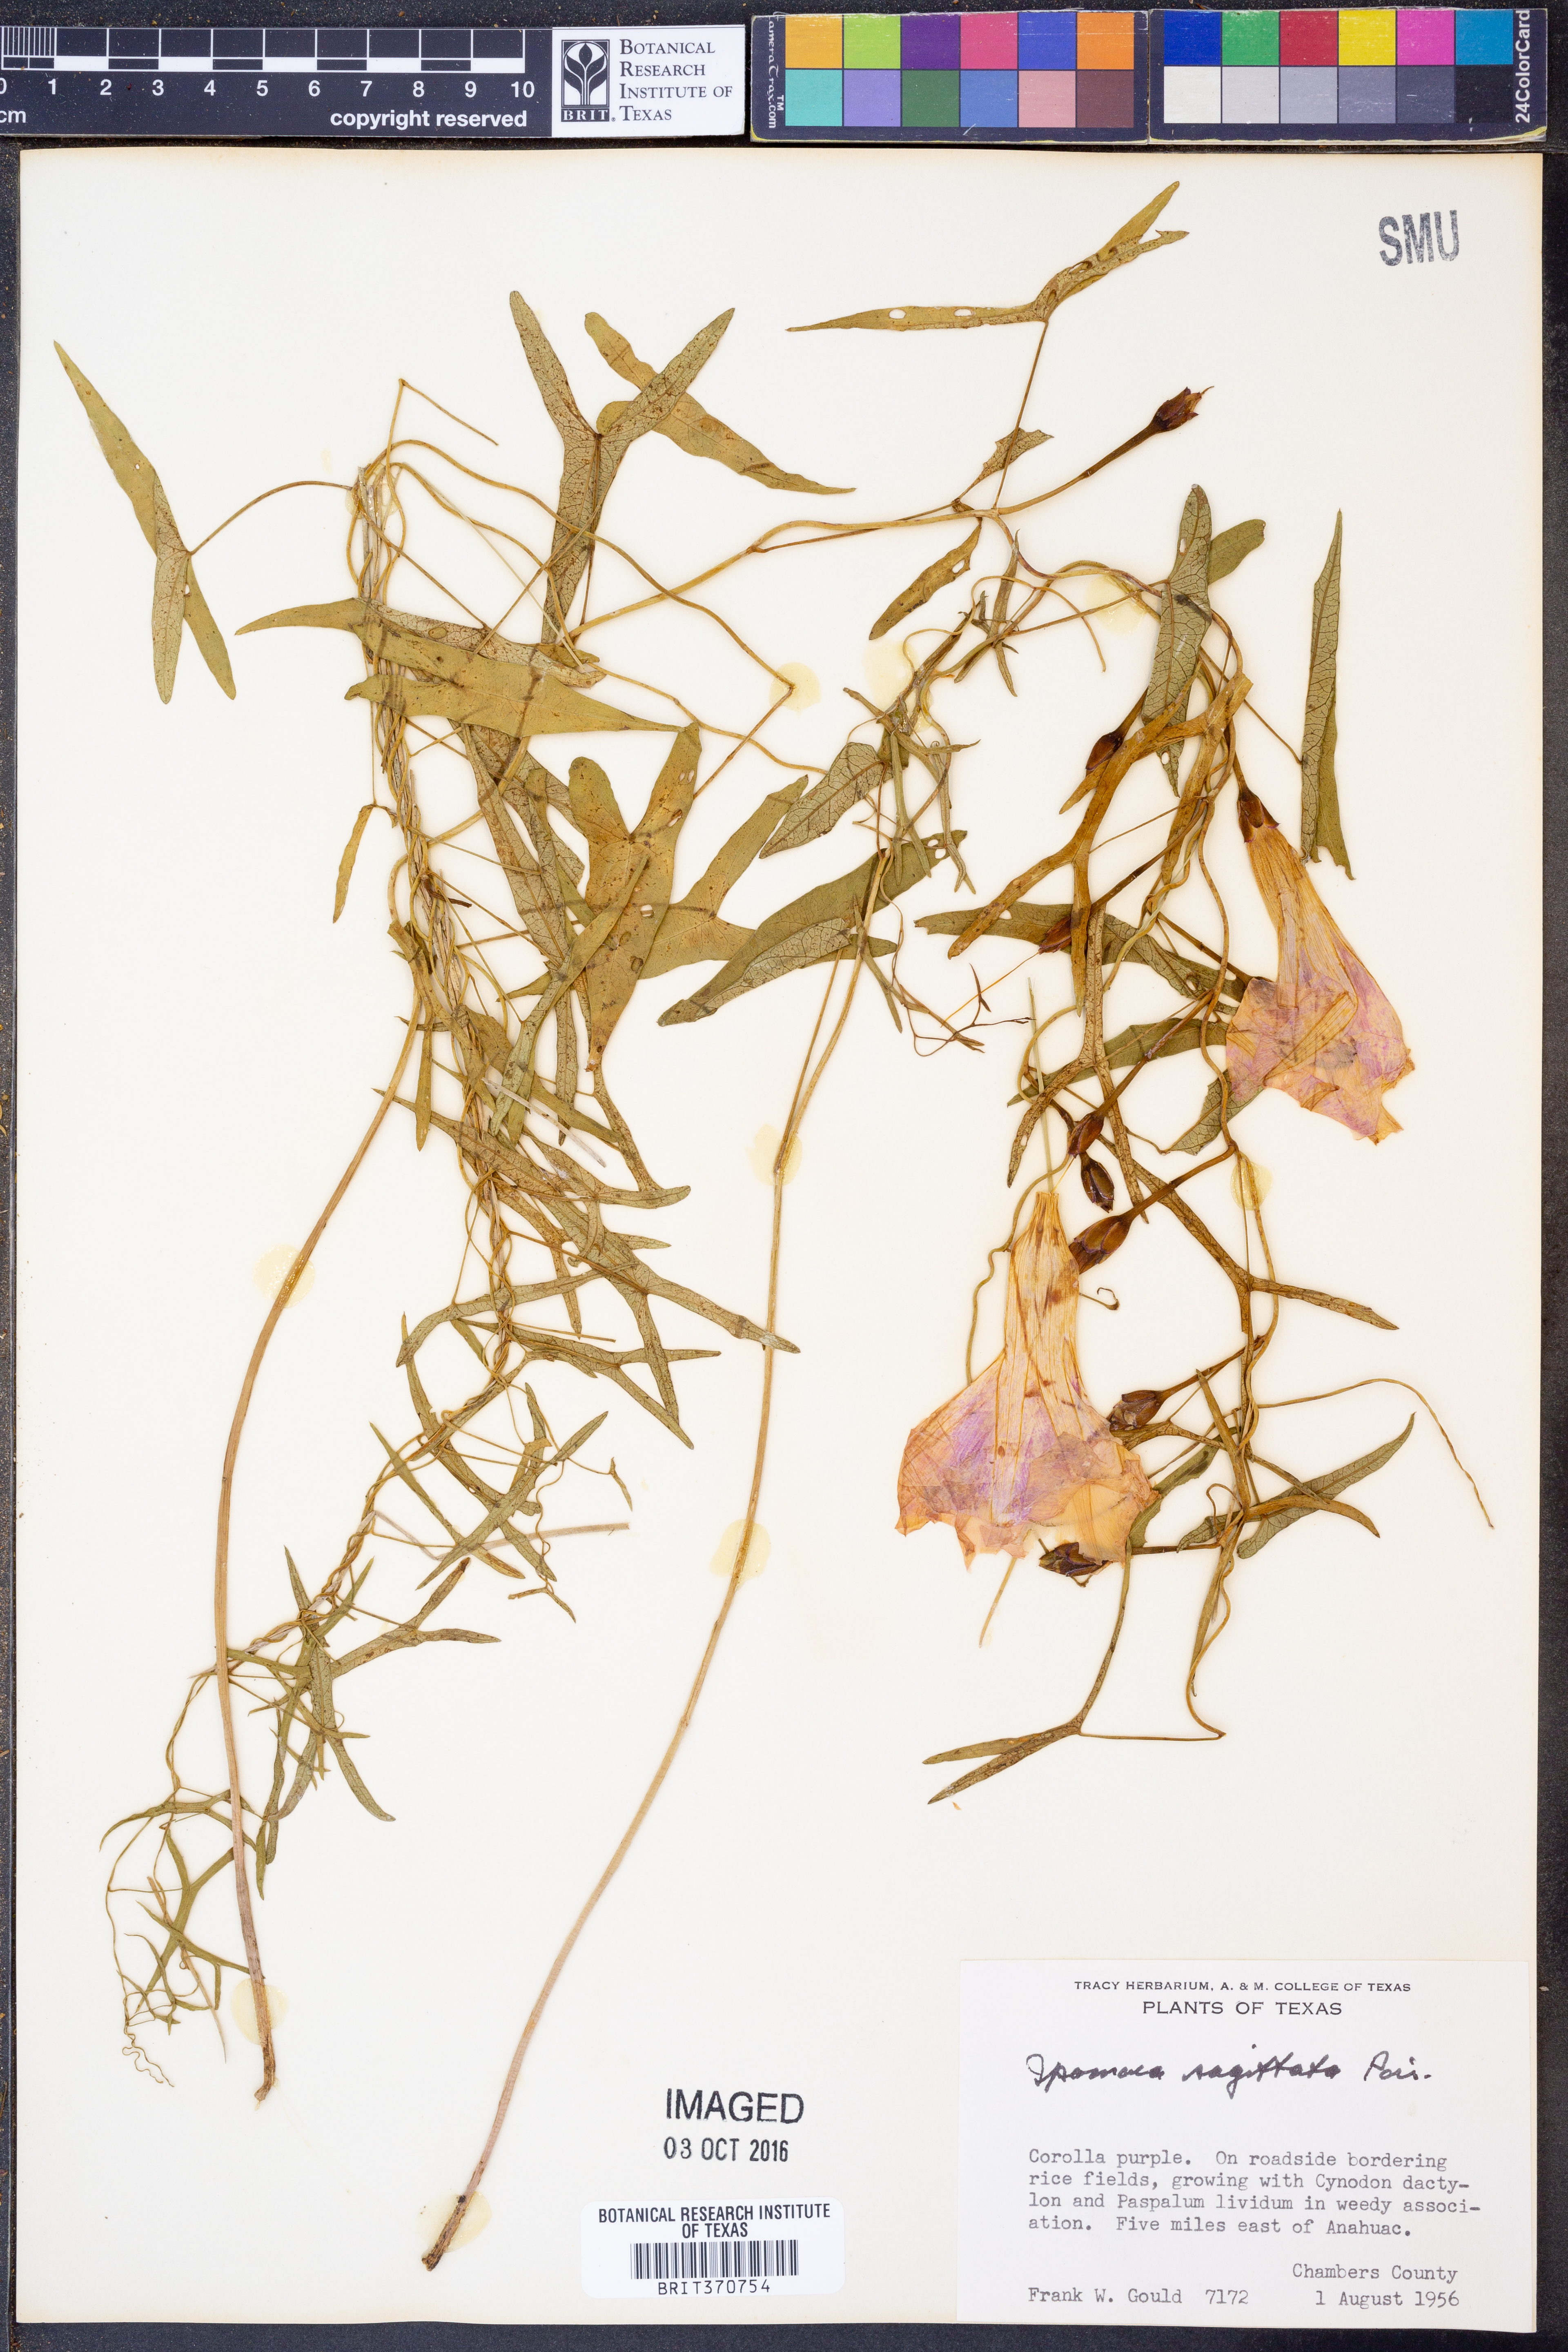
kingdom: Plantae
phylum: Tracheophyta
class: Magnoliopsida
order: Solanales
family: Convolvulaceae
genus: Ipomoea
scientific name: Ipomoea sinensis
